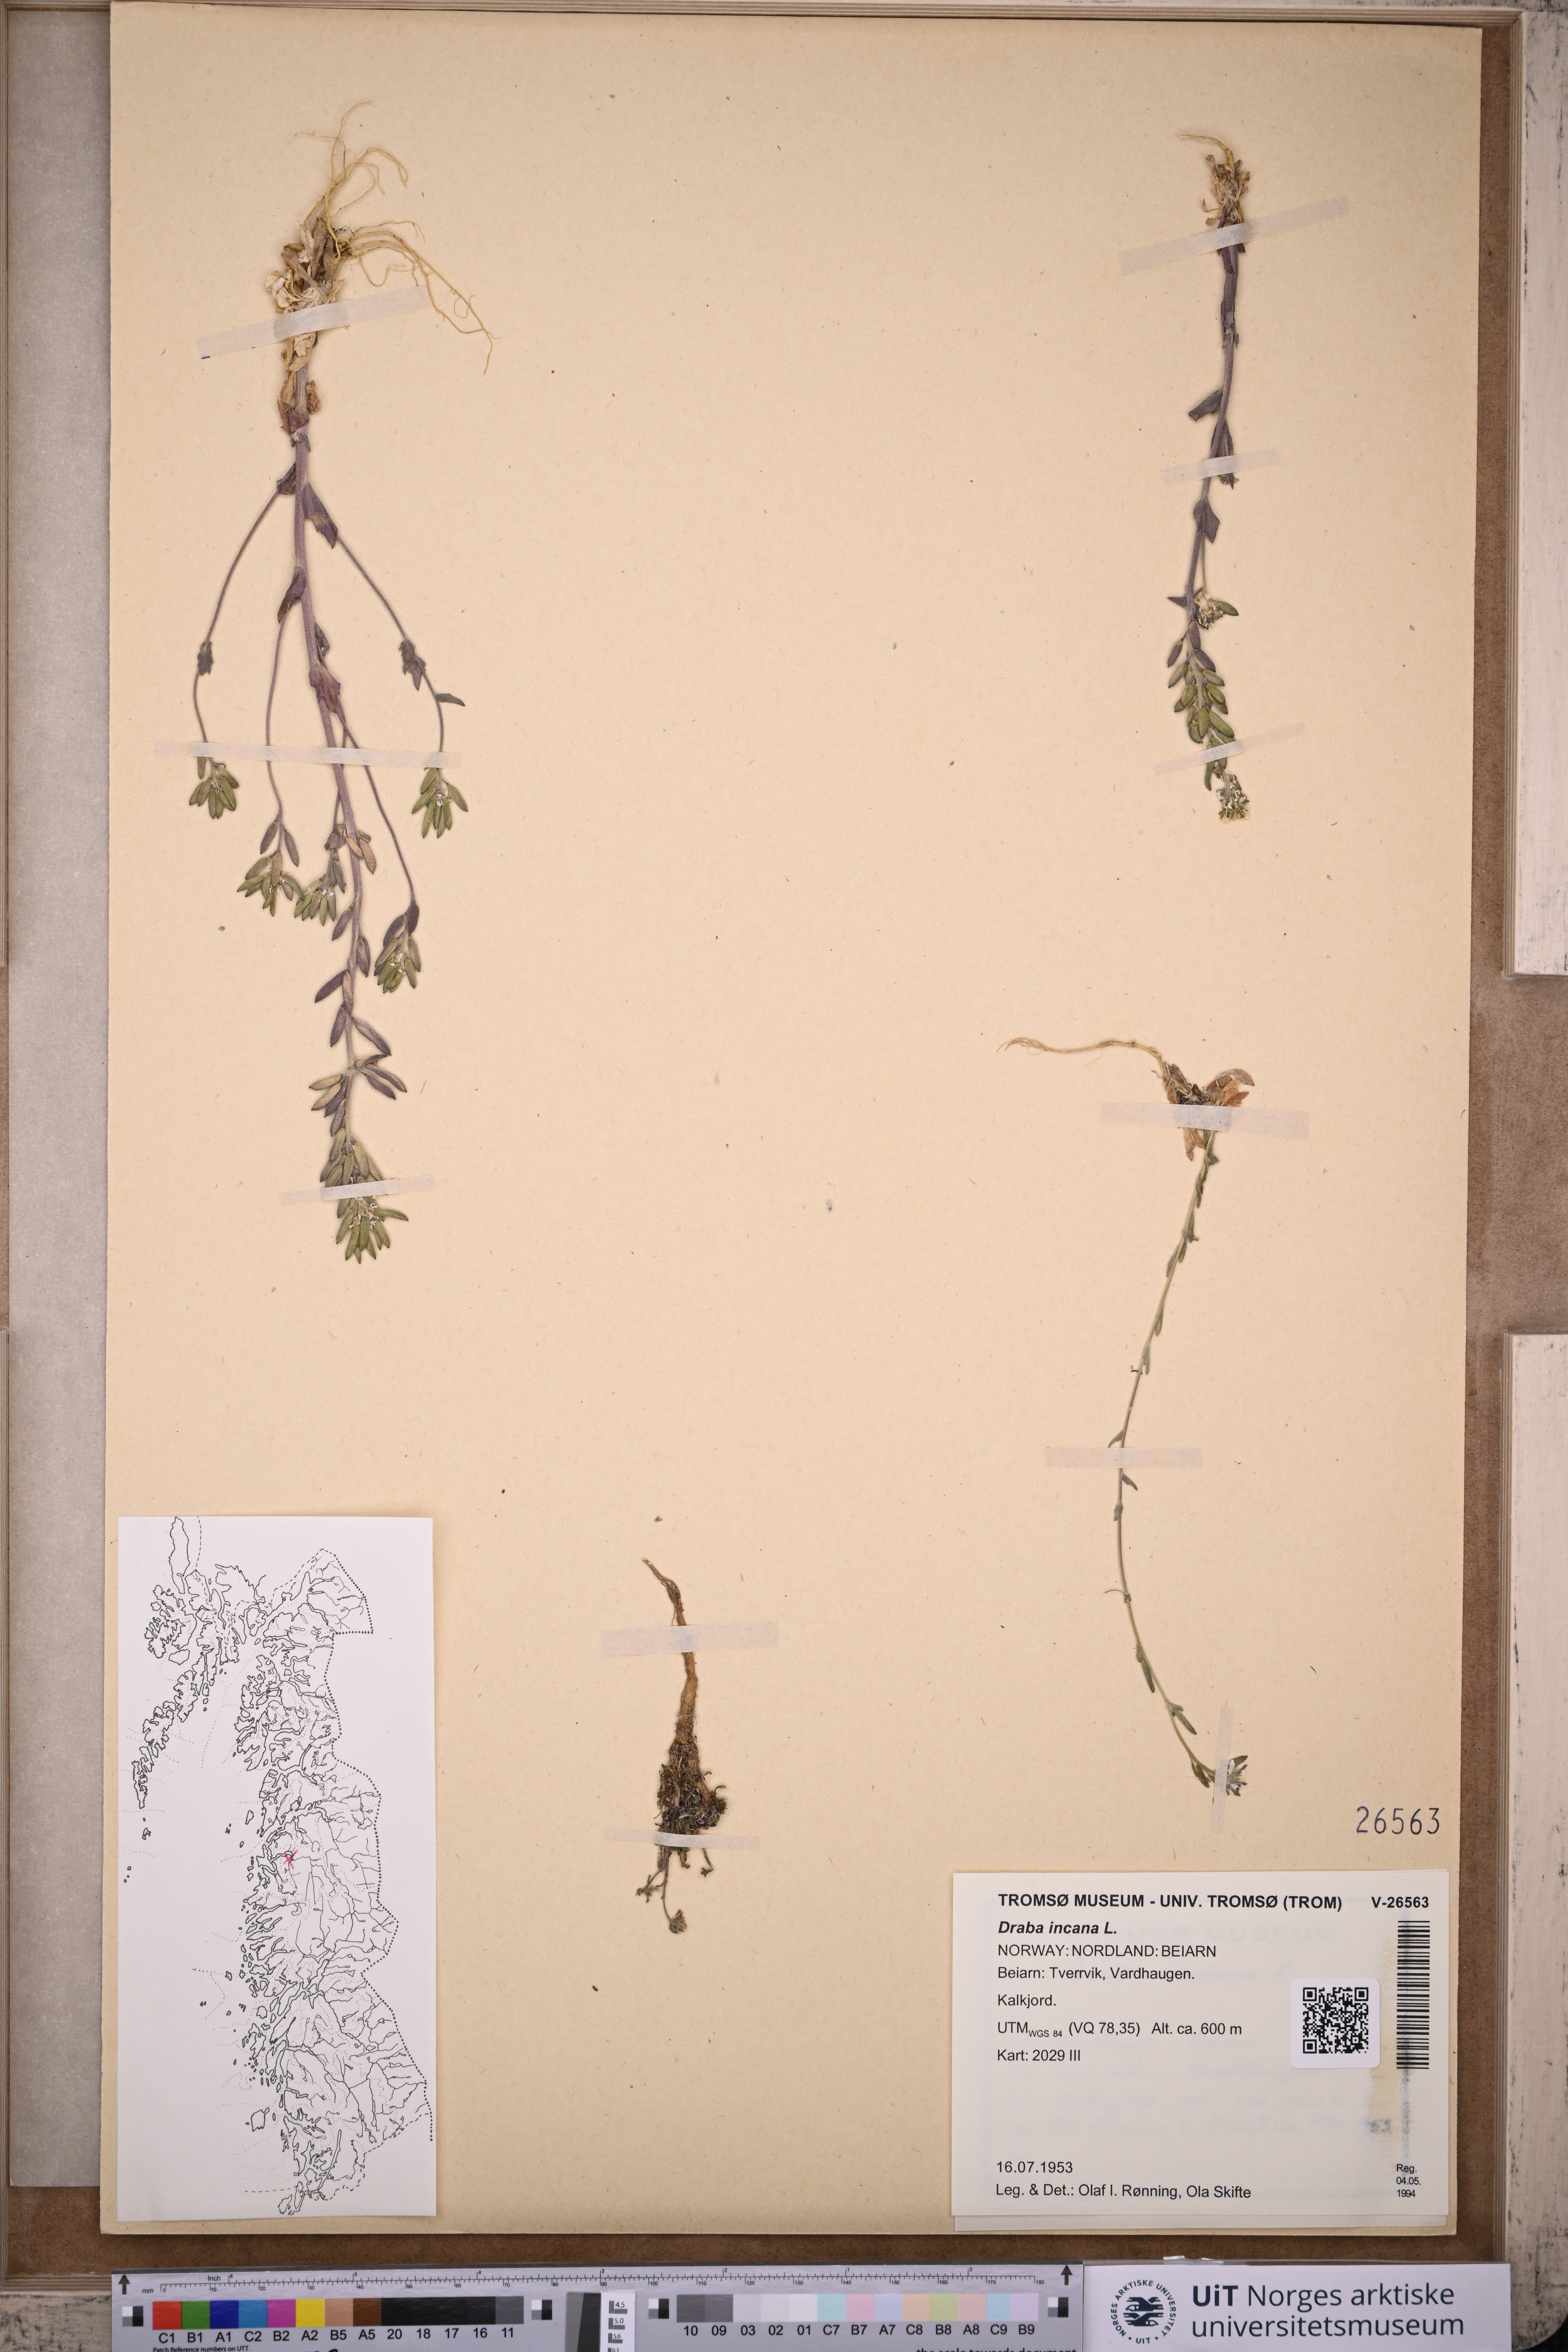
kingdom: Plantae
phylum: Tracheophyta
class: Magnoliopsida
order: Brassicales
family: Brassicaceae
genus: Draba
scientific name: Draba incana
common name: Hoary whitlow-grass
